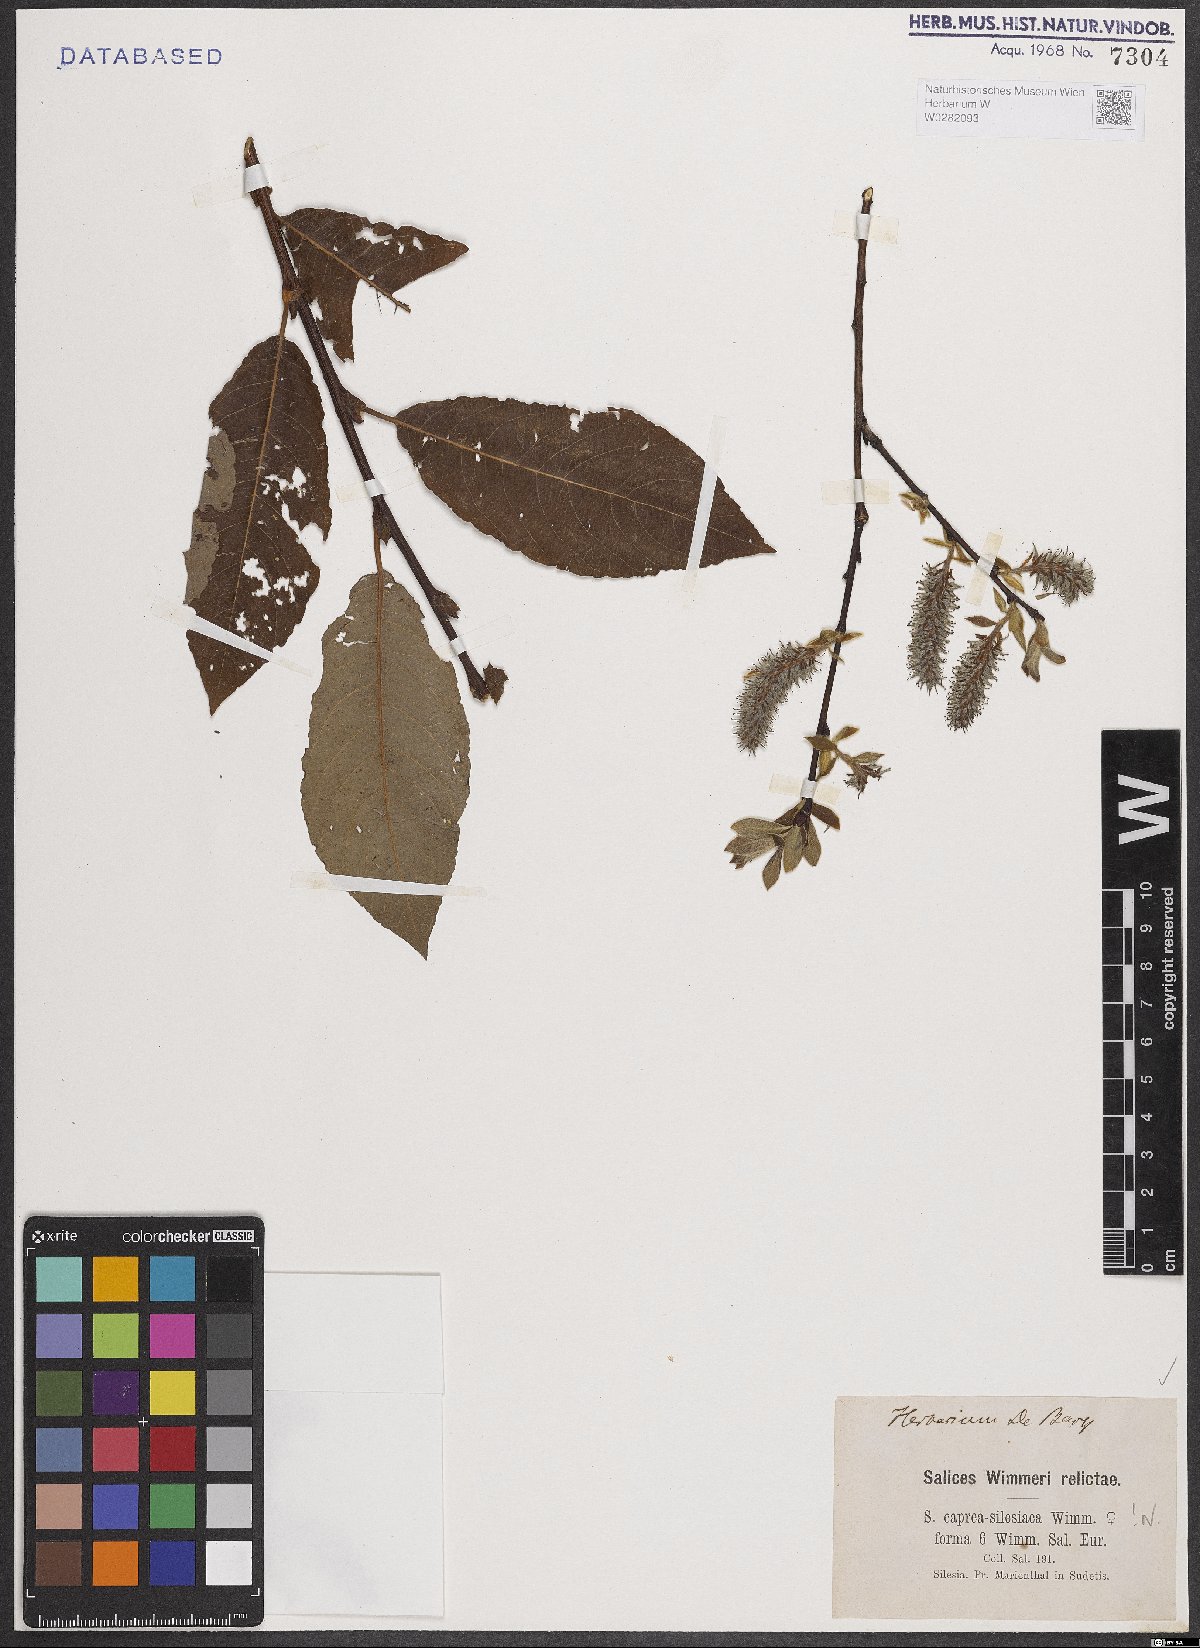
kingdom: Plantae
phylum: Tracheophyta
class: Magnoliopsida
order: Malpighiales
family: Salicaceae
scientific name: Salicaceae
